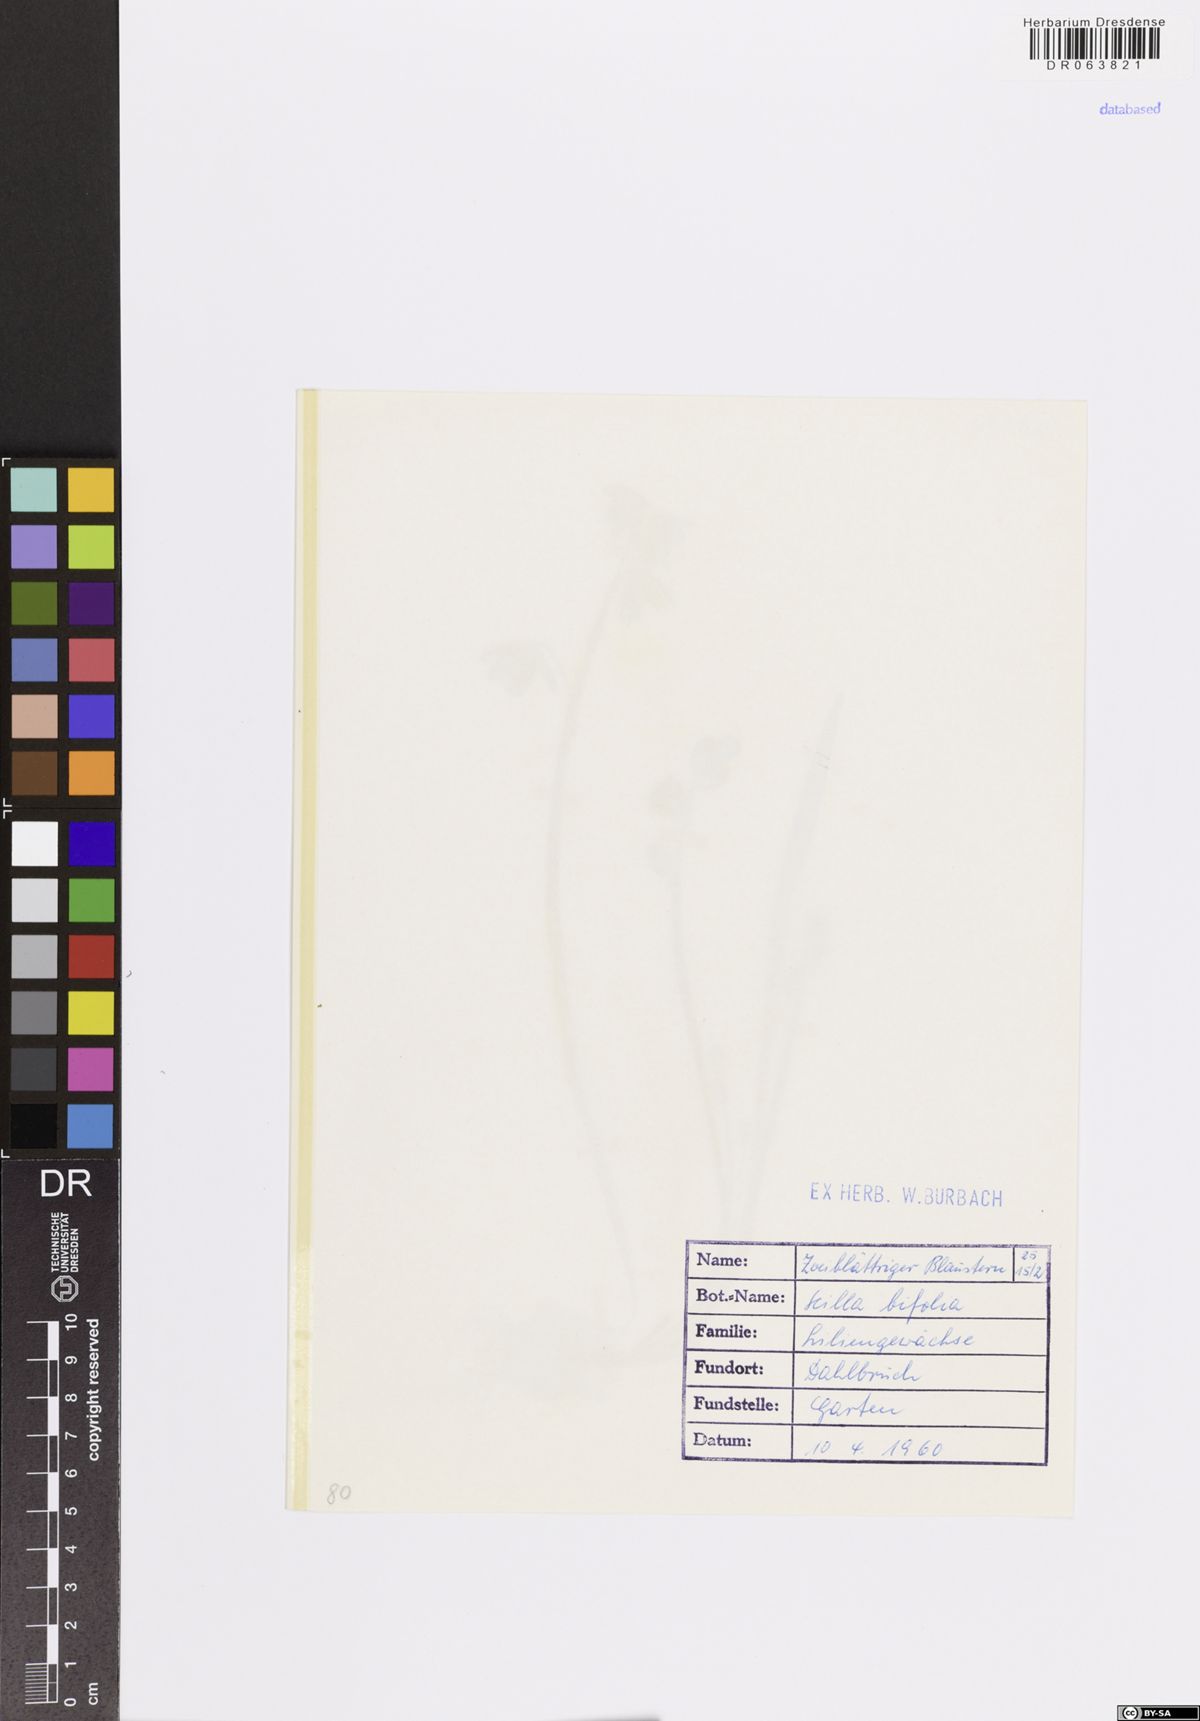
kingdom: Plantae
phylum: Tracheophyta
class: Liliopsida
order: Asparagales
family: Asparagaceae
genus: Scilla
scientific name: Scilla bifolia
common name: Alpine squill
